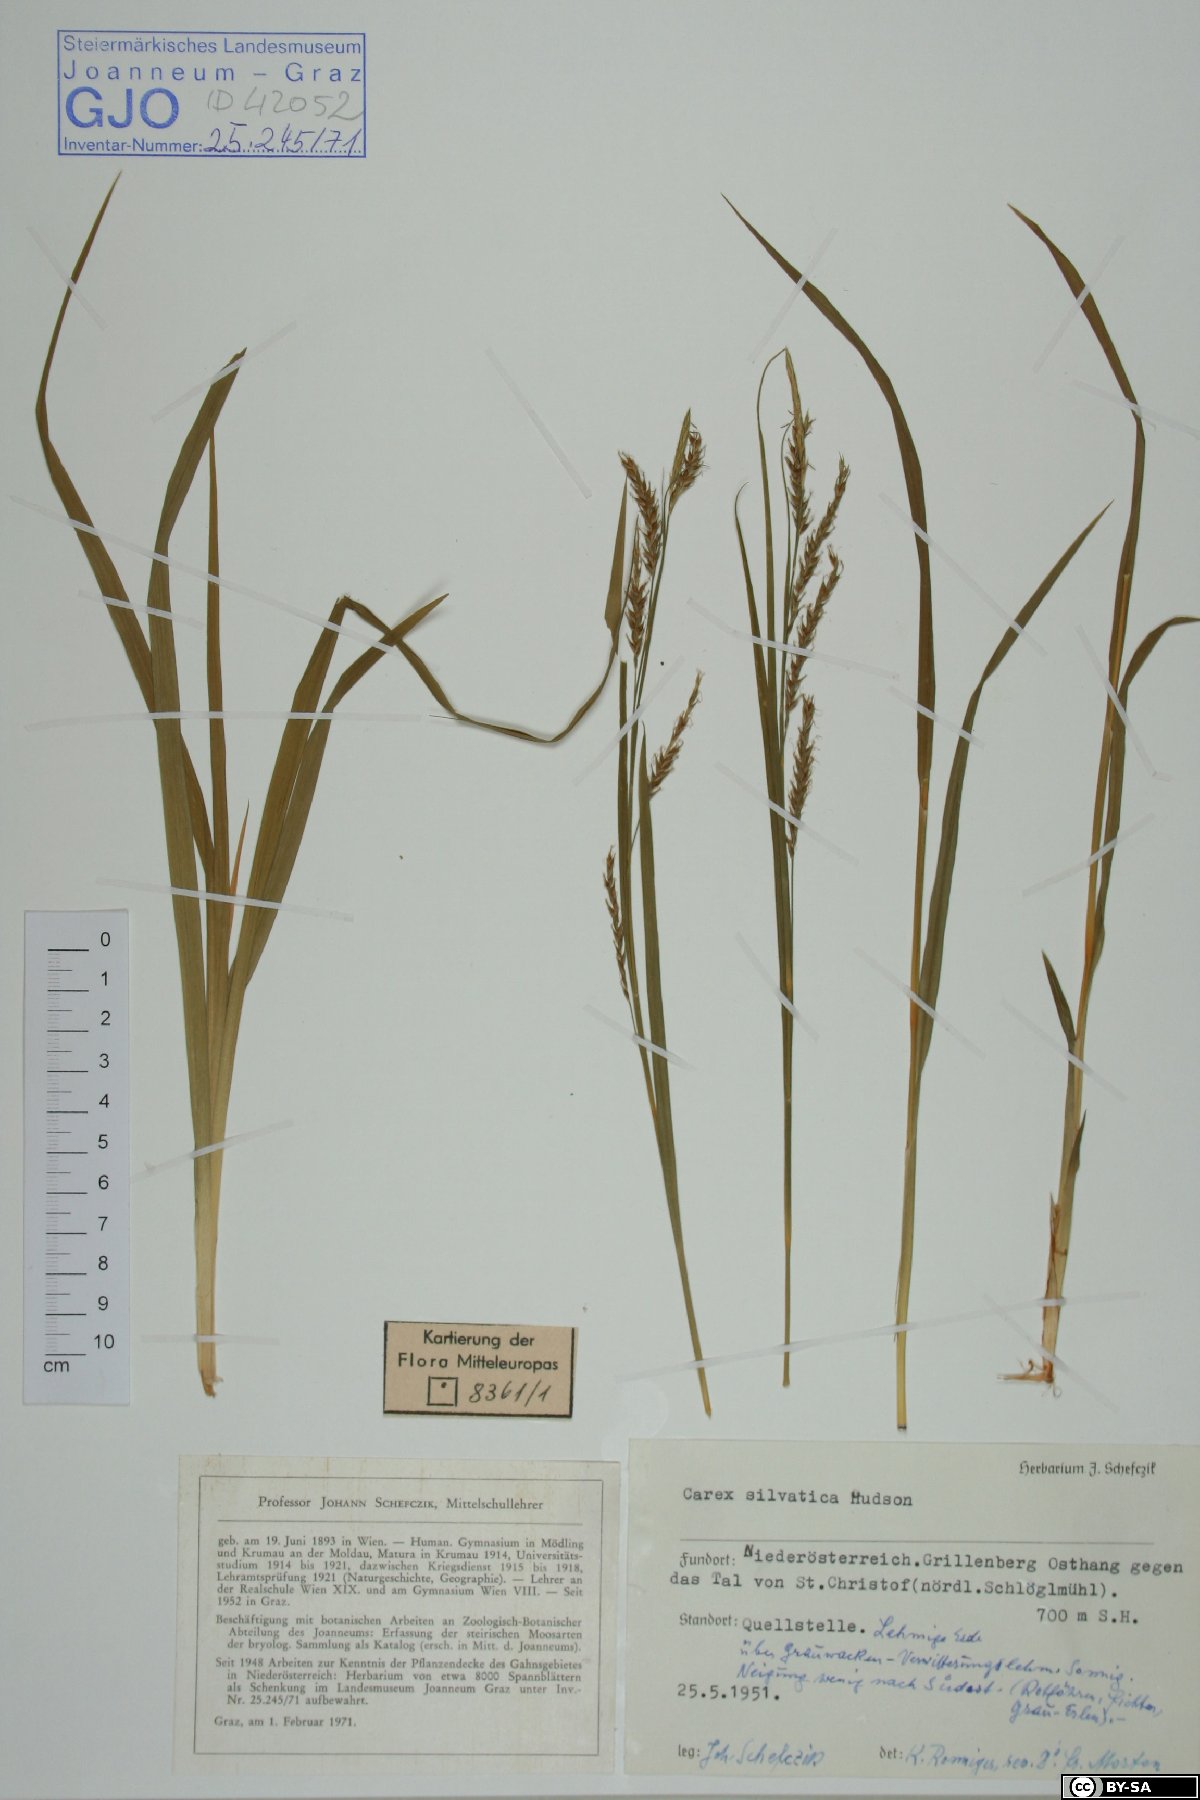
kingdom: Plantae
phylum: Tracheophyta
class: Liliopsida
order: Poales
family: Cyperaceae
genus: Carex
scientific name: Carex sylvatica
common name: Wood-sedge
